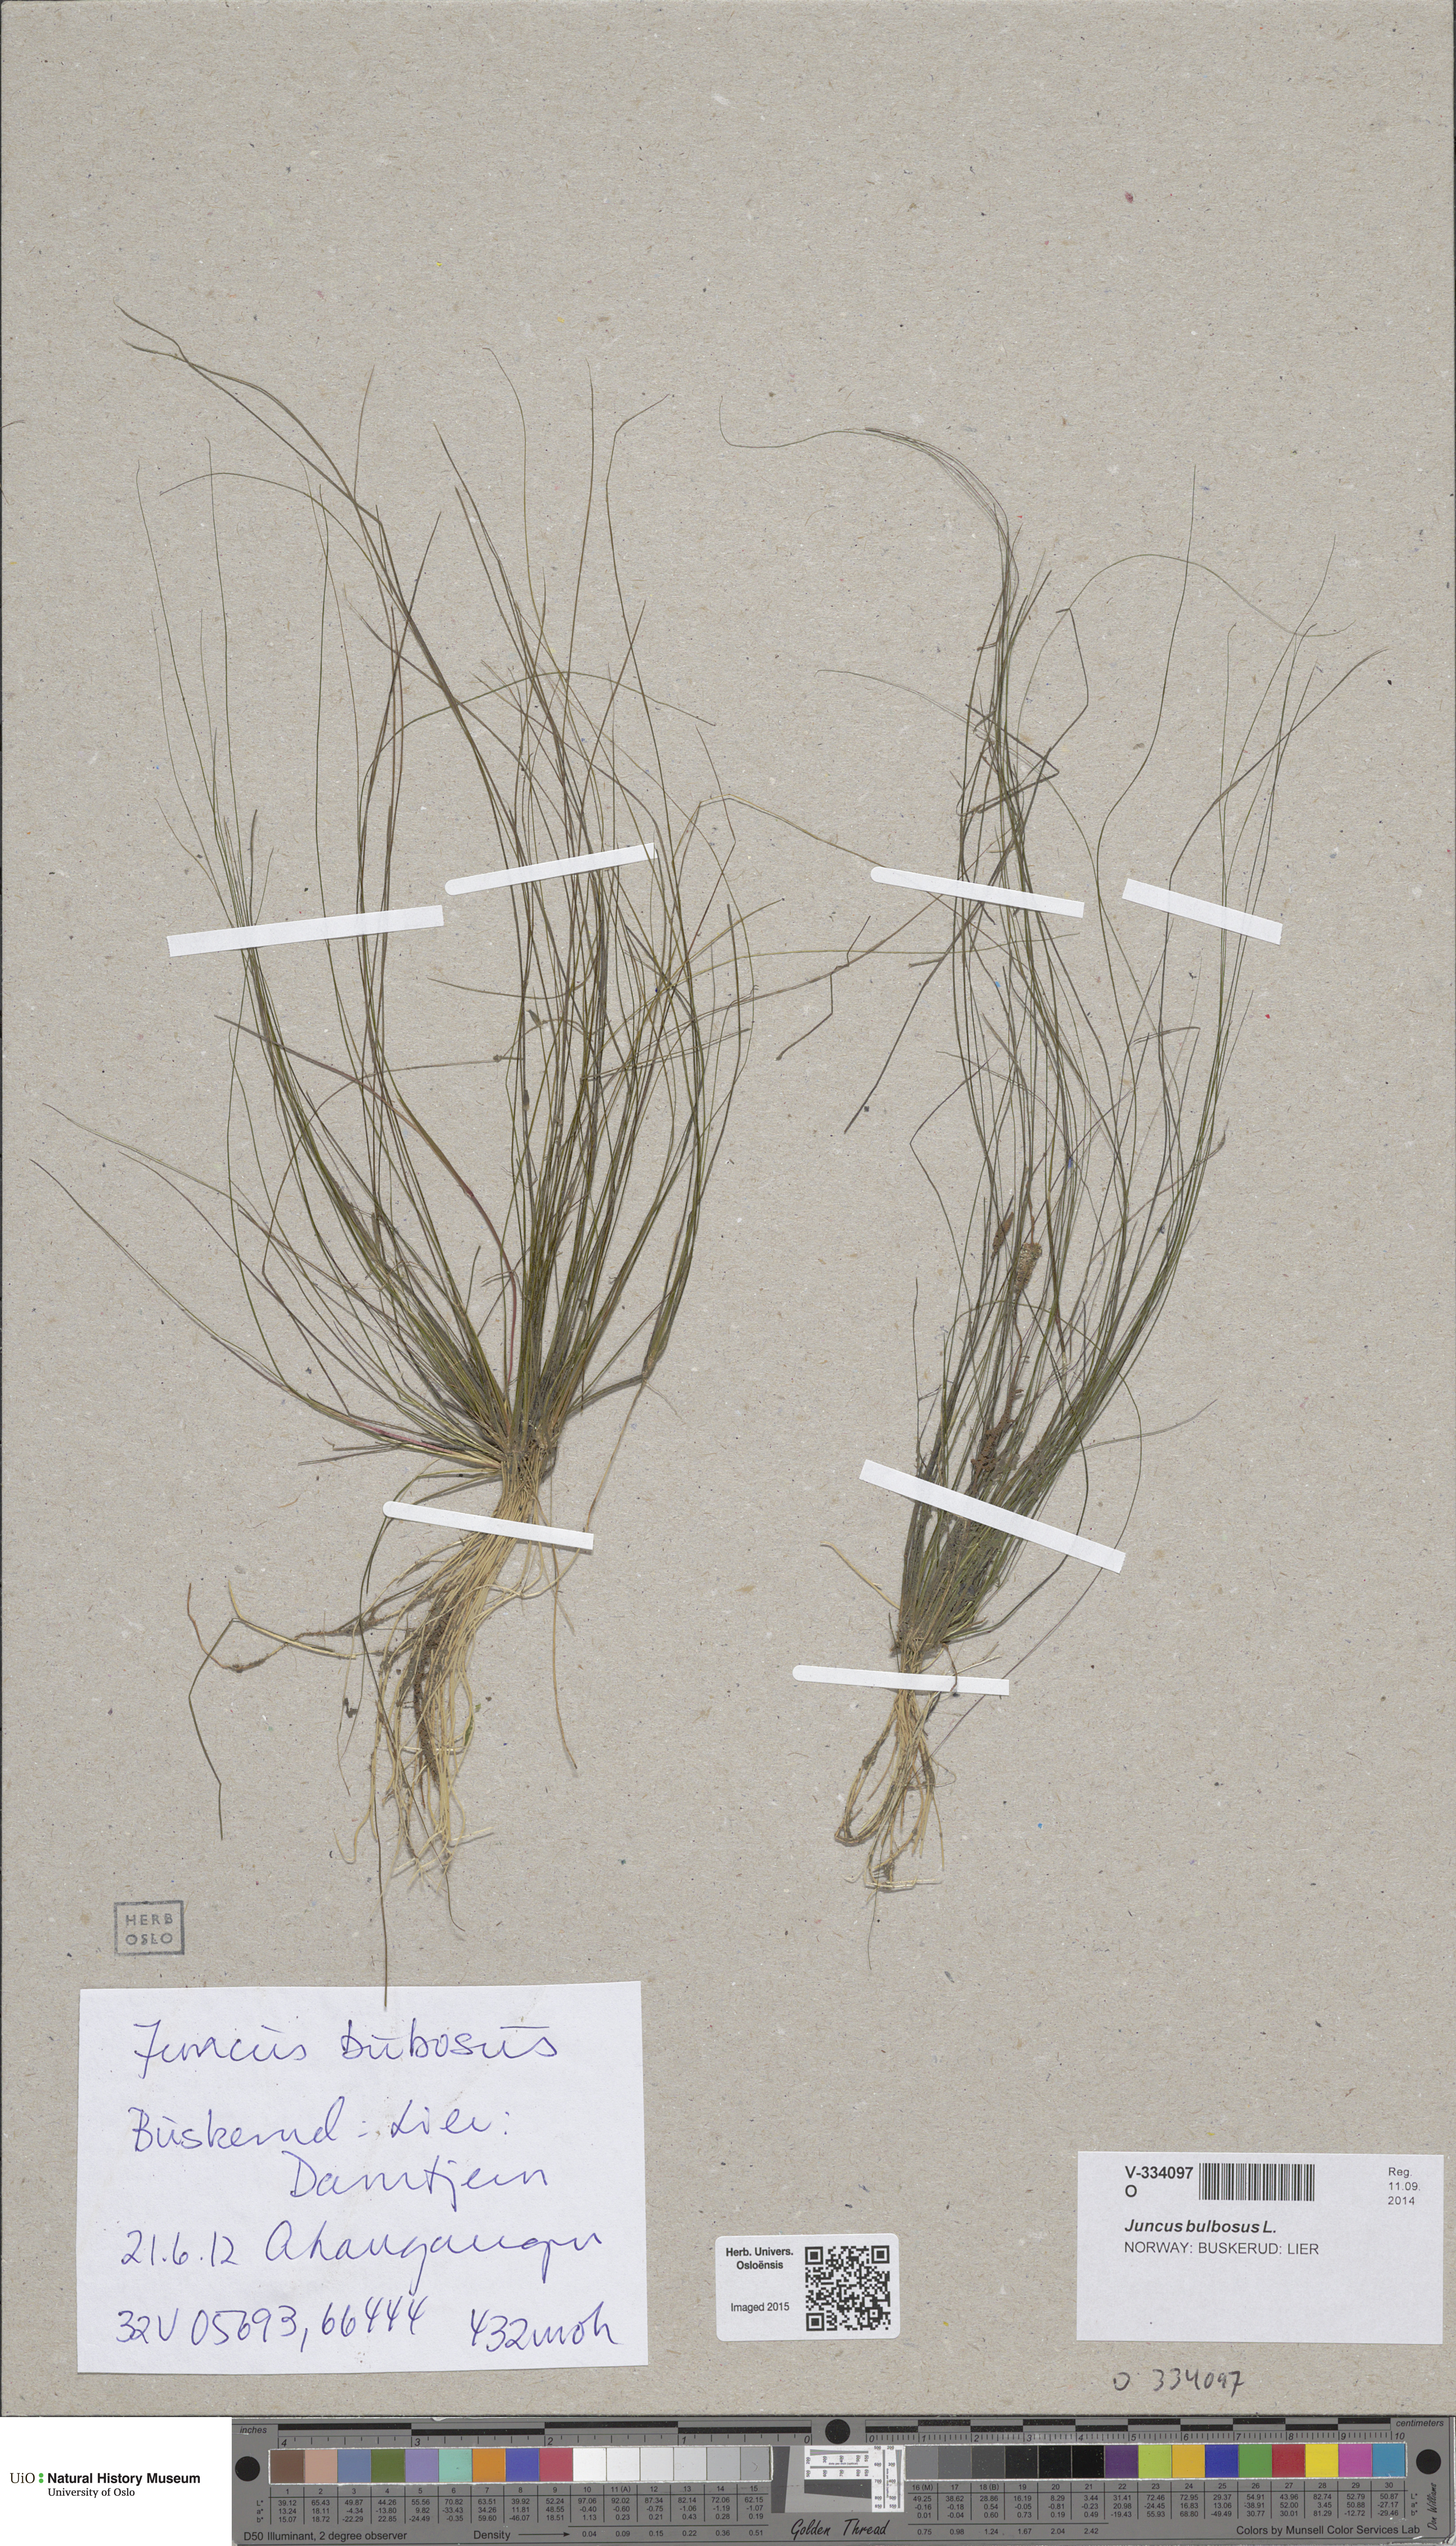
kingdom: Plantae
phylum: Tracheophyta
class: Liliopsida
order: Poales
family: Juncaceae
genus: Juncus
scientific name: Juncus bulbosus
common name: Bulbous rush
